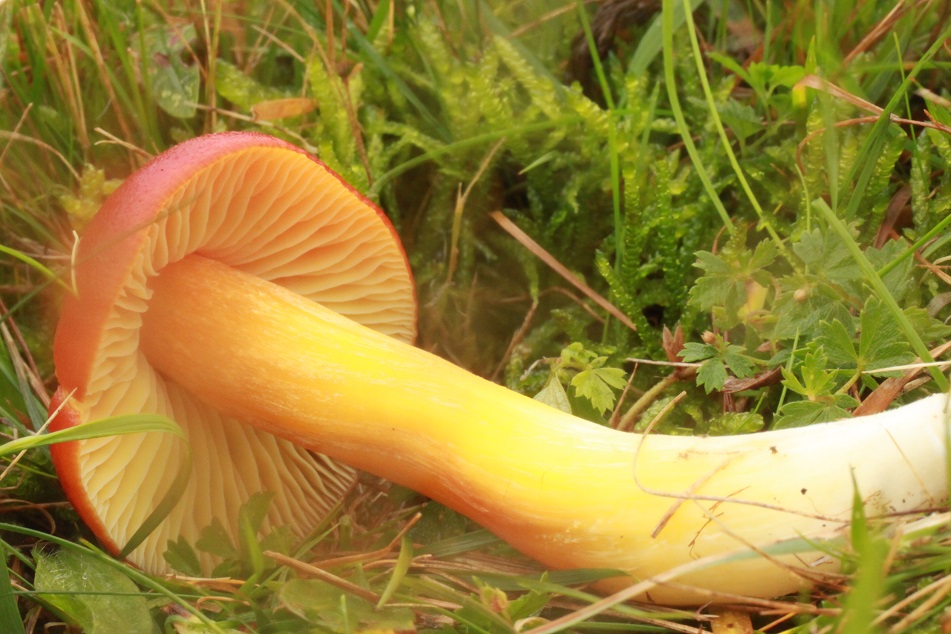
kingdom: Fungi
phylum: Basidiomycota
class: Agaricomycetes
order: Agaricales
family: Hygrophoraceae
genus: Hygrocybe
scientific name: Hygrocybe punicea
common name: skarlagen-vokshat
